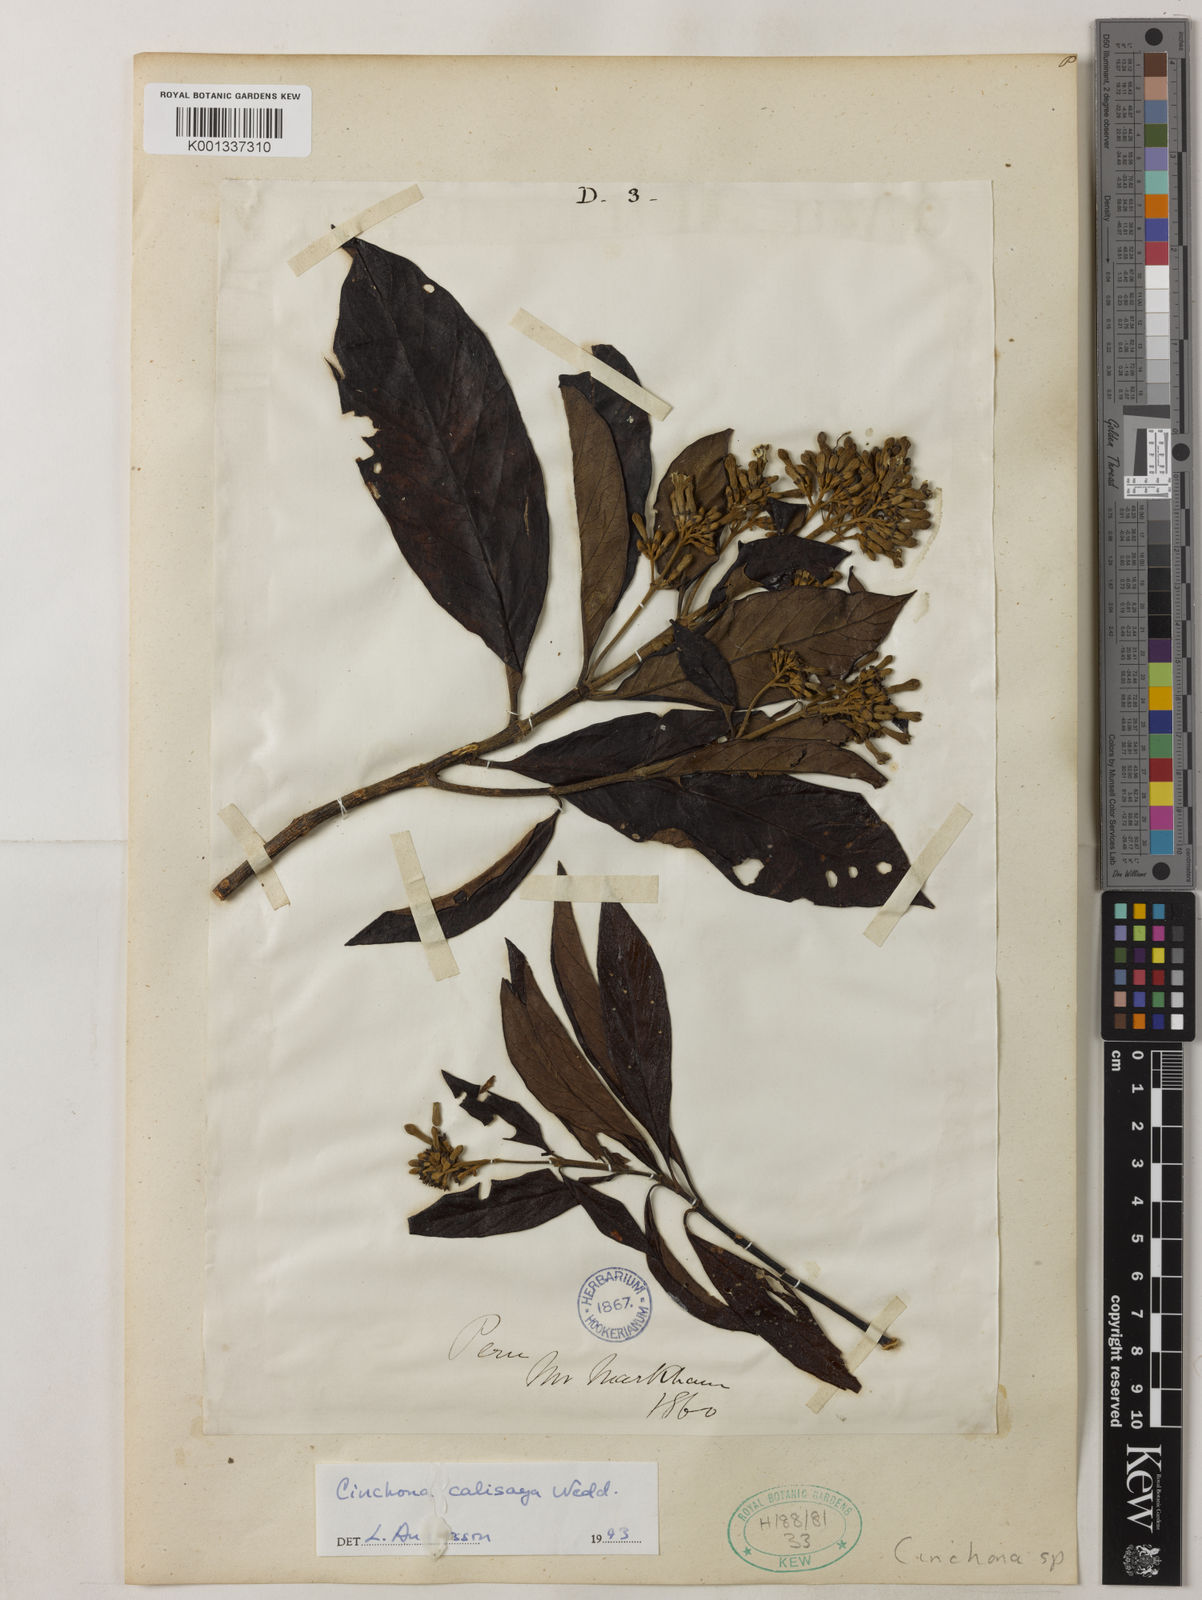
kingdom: Plantae
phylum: Tracheophyta
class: Magnoliopsida
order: Gentianales
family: Rubiaceae
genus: Cinchona
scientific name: Cinchona calisaya
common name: Ledgerbark
